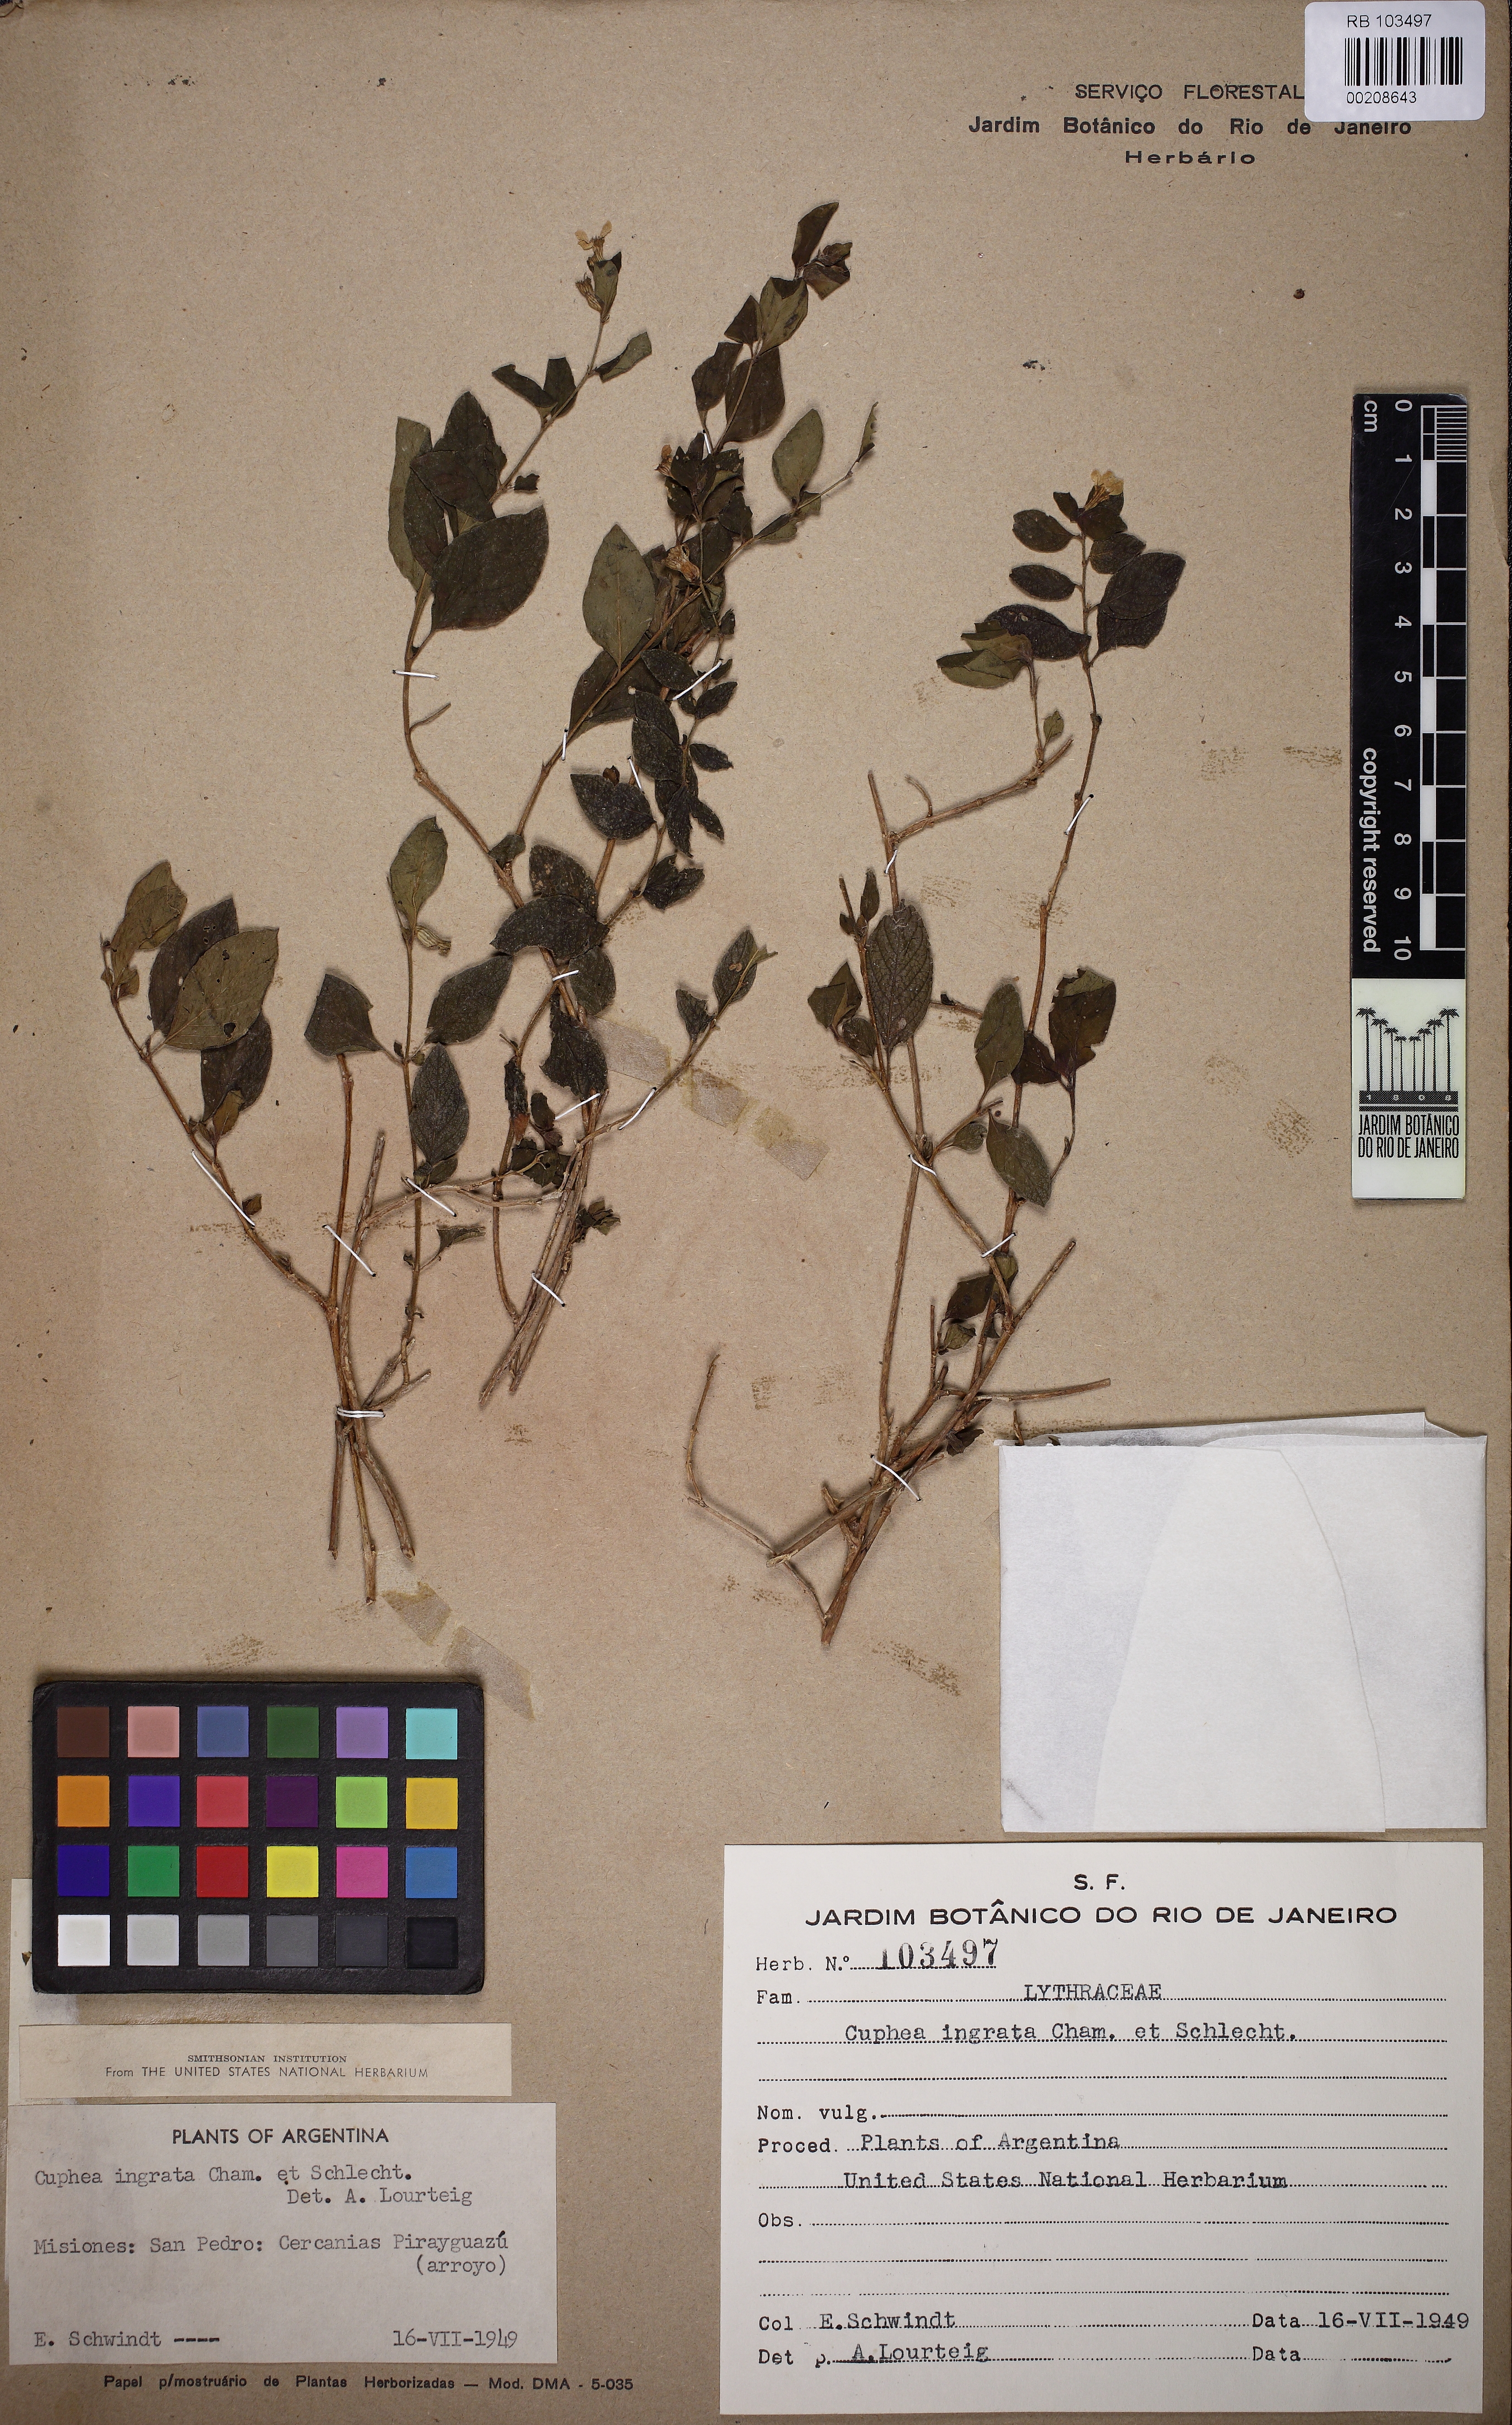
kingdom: Plantae
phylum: Tracheophyta
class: Magnoliopsida
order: Myrtales
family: Lythraceae
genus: Cuphea
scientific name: Cuphea ingrata
